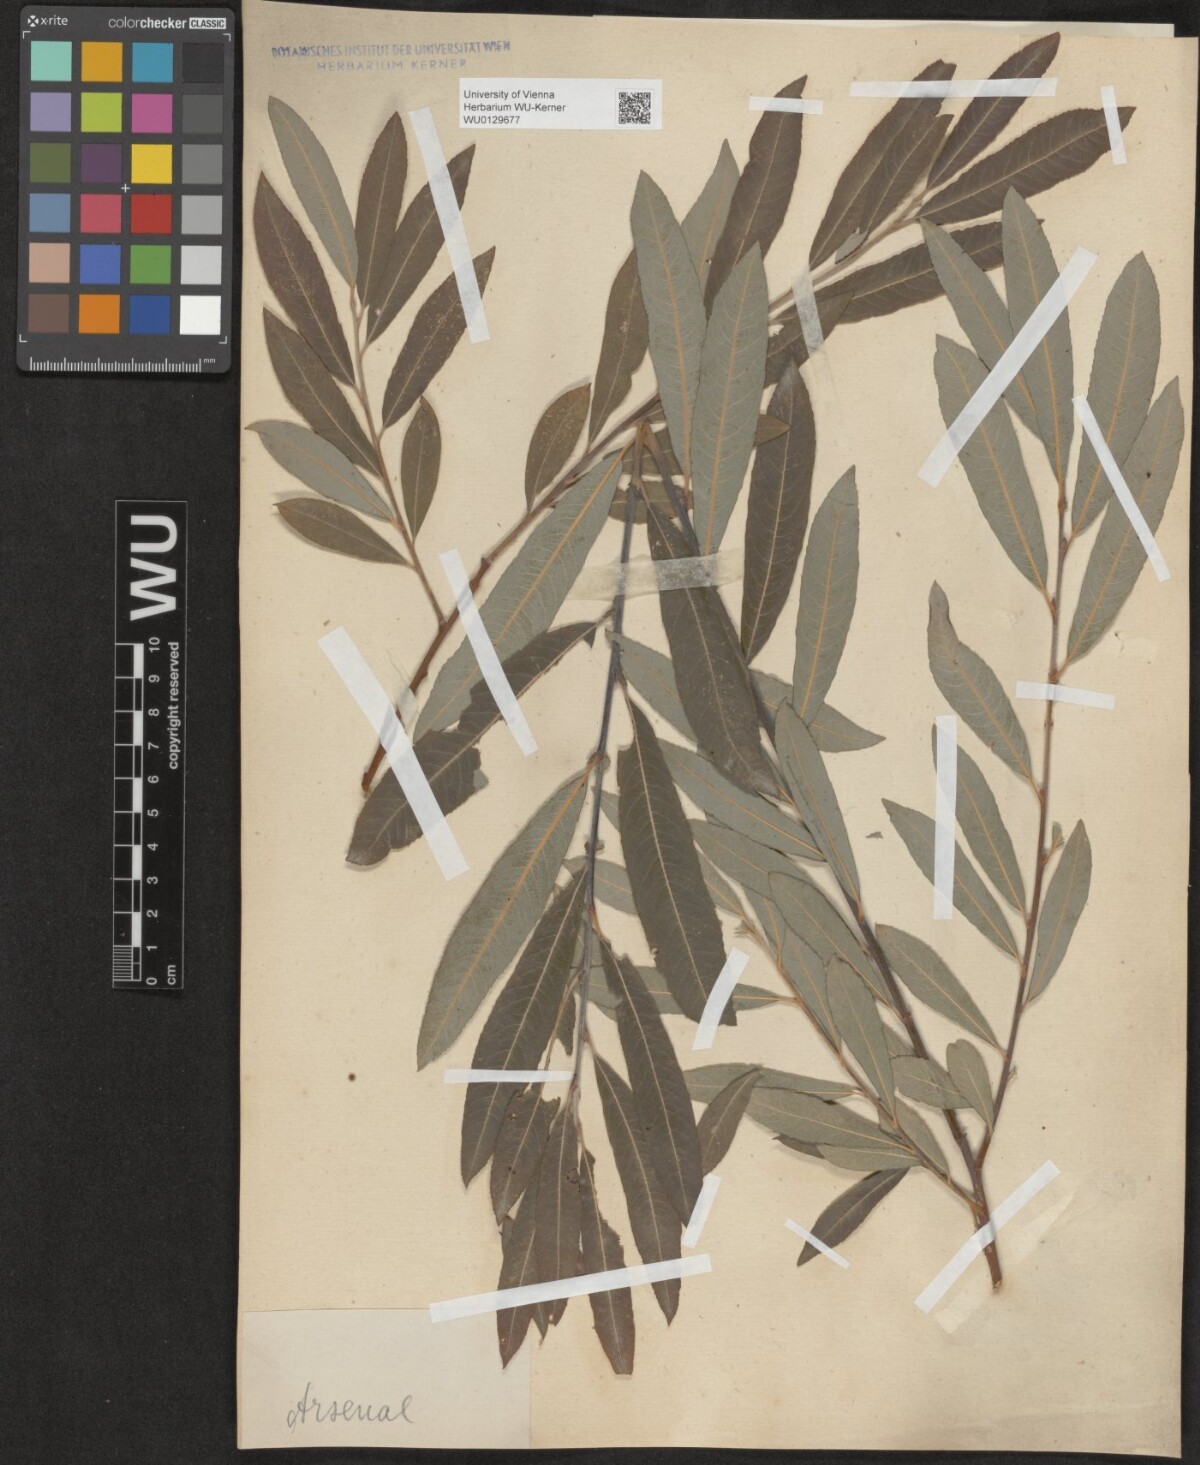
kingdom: Plantae
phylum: Tracheophyta
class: Magnoliopsida
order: Malpighiales
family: Salicaceae
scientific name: Salicaceae
